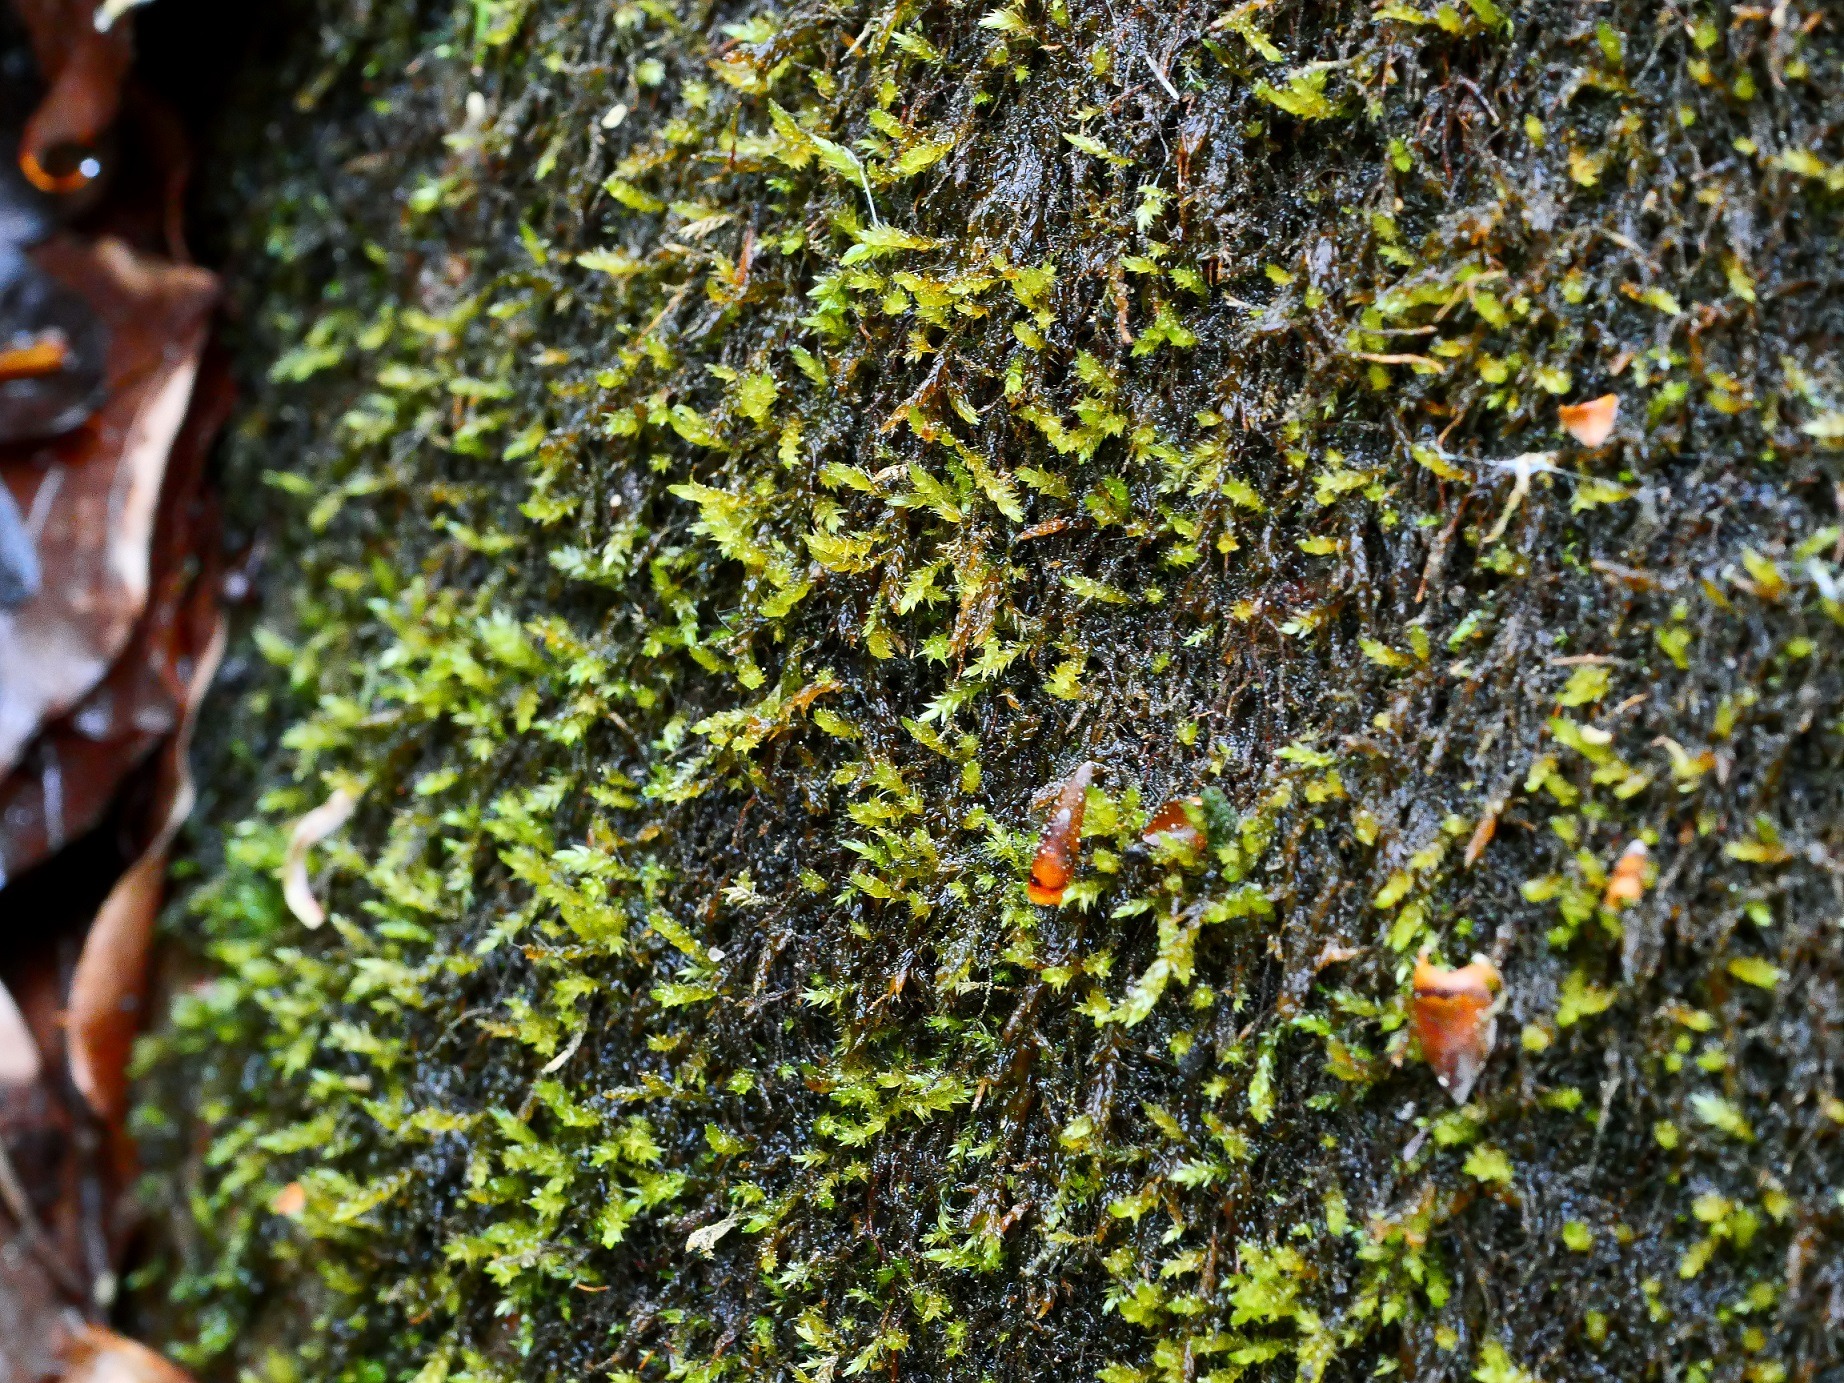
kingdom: Plantae
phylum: Bryophyta
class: Bryopsida
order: Hypnales
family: Amblystegiaceae
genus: Hygrohypnum
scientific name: Hygrohypnum luridum
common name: Krum møllemos
